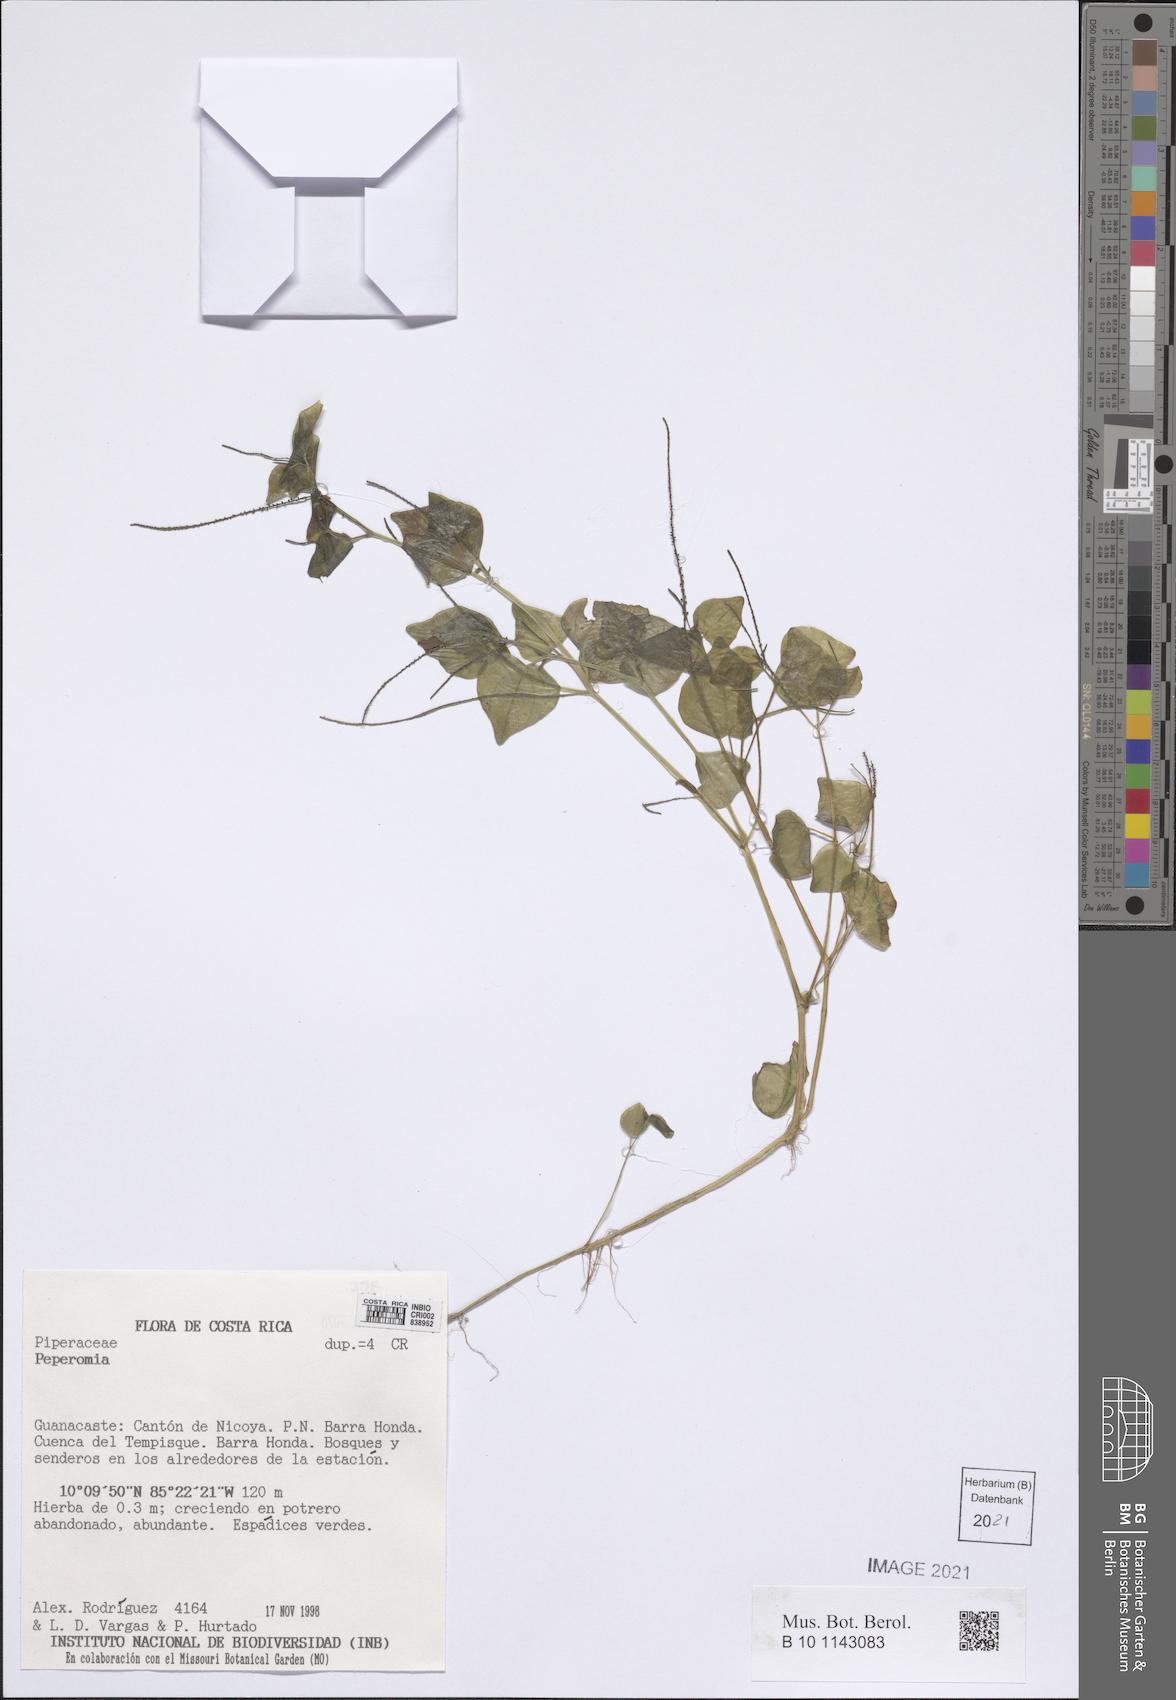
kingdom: Plantae
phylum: Tracheophyta
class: Magnoliopsida
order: Piperales
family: Piperaceae
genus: Peperomia
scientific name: Peperomia
